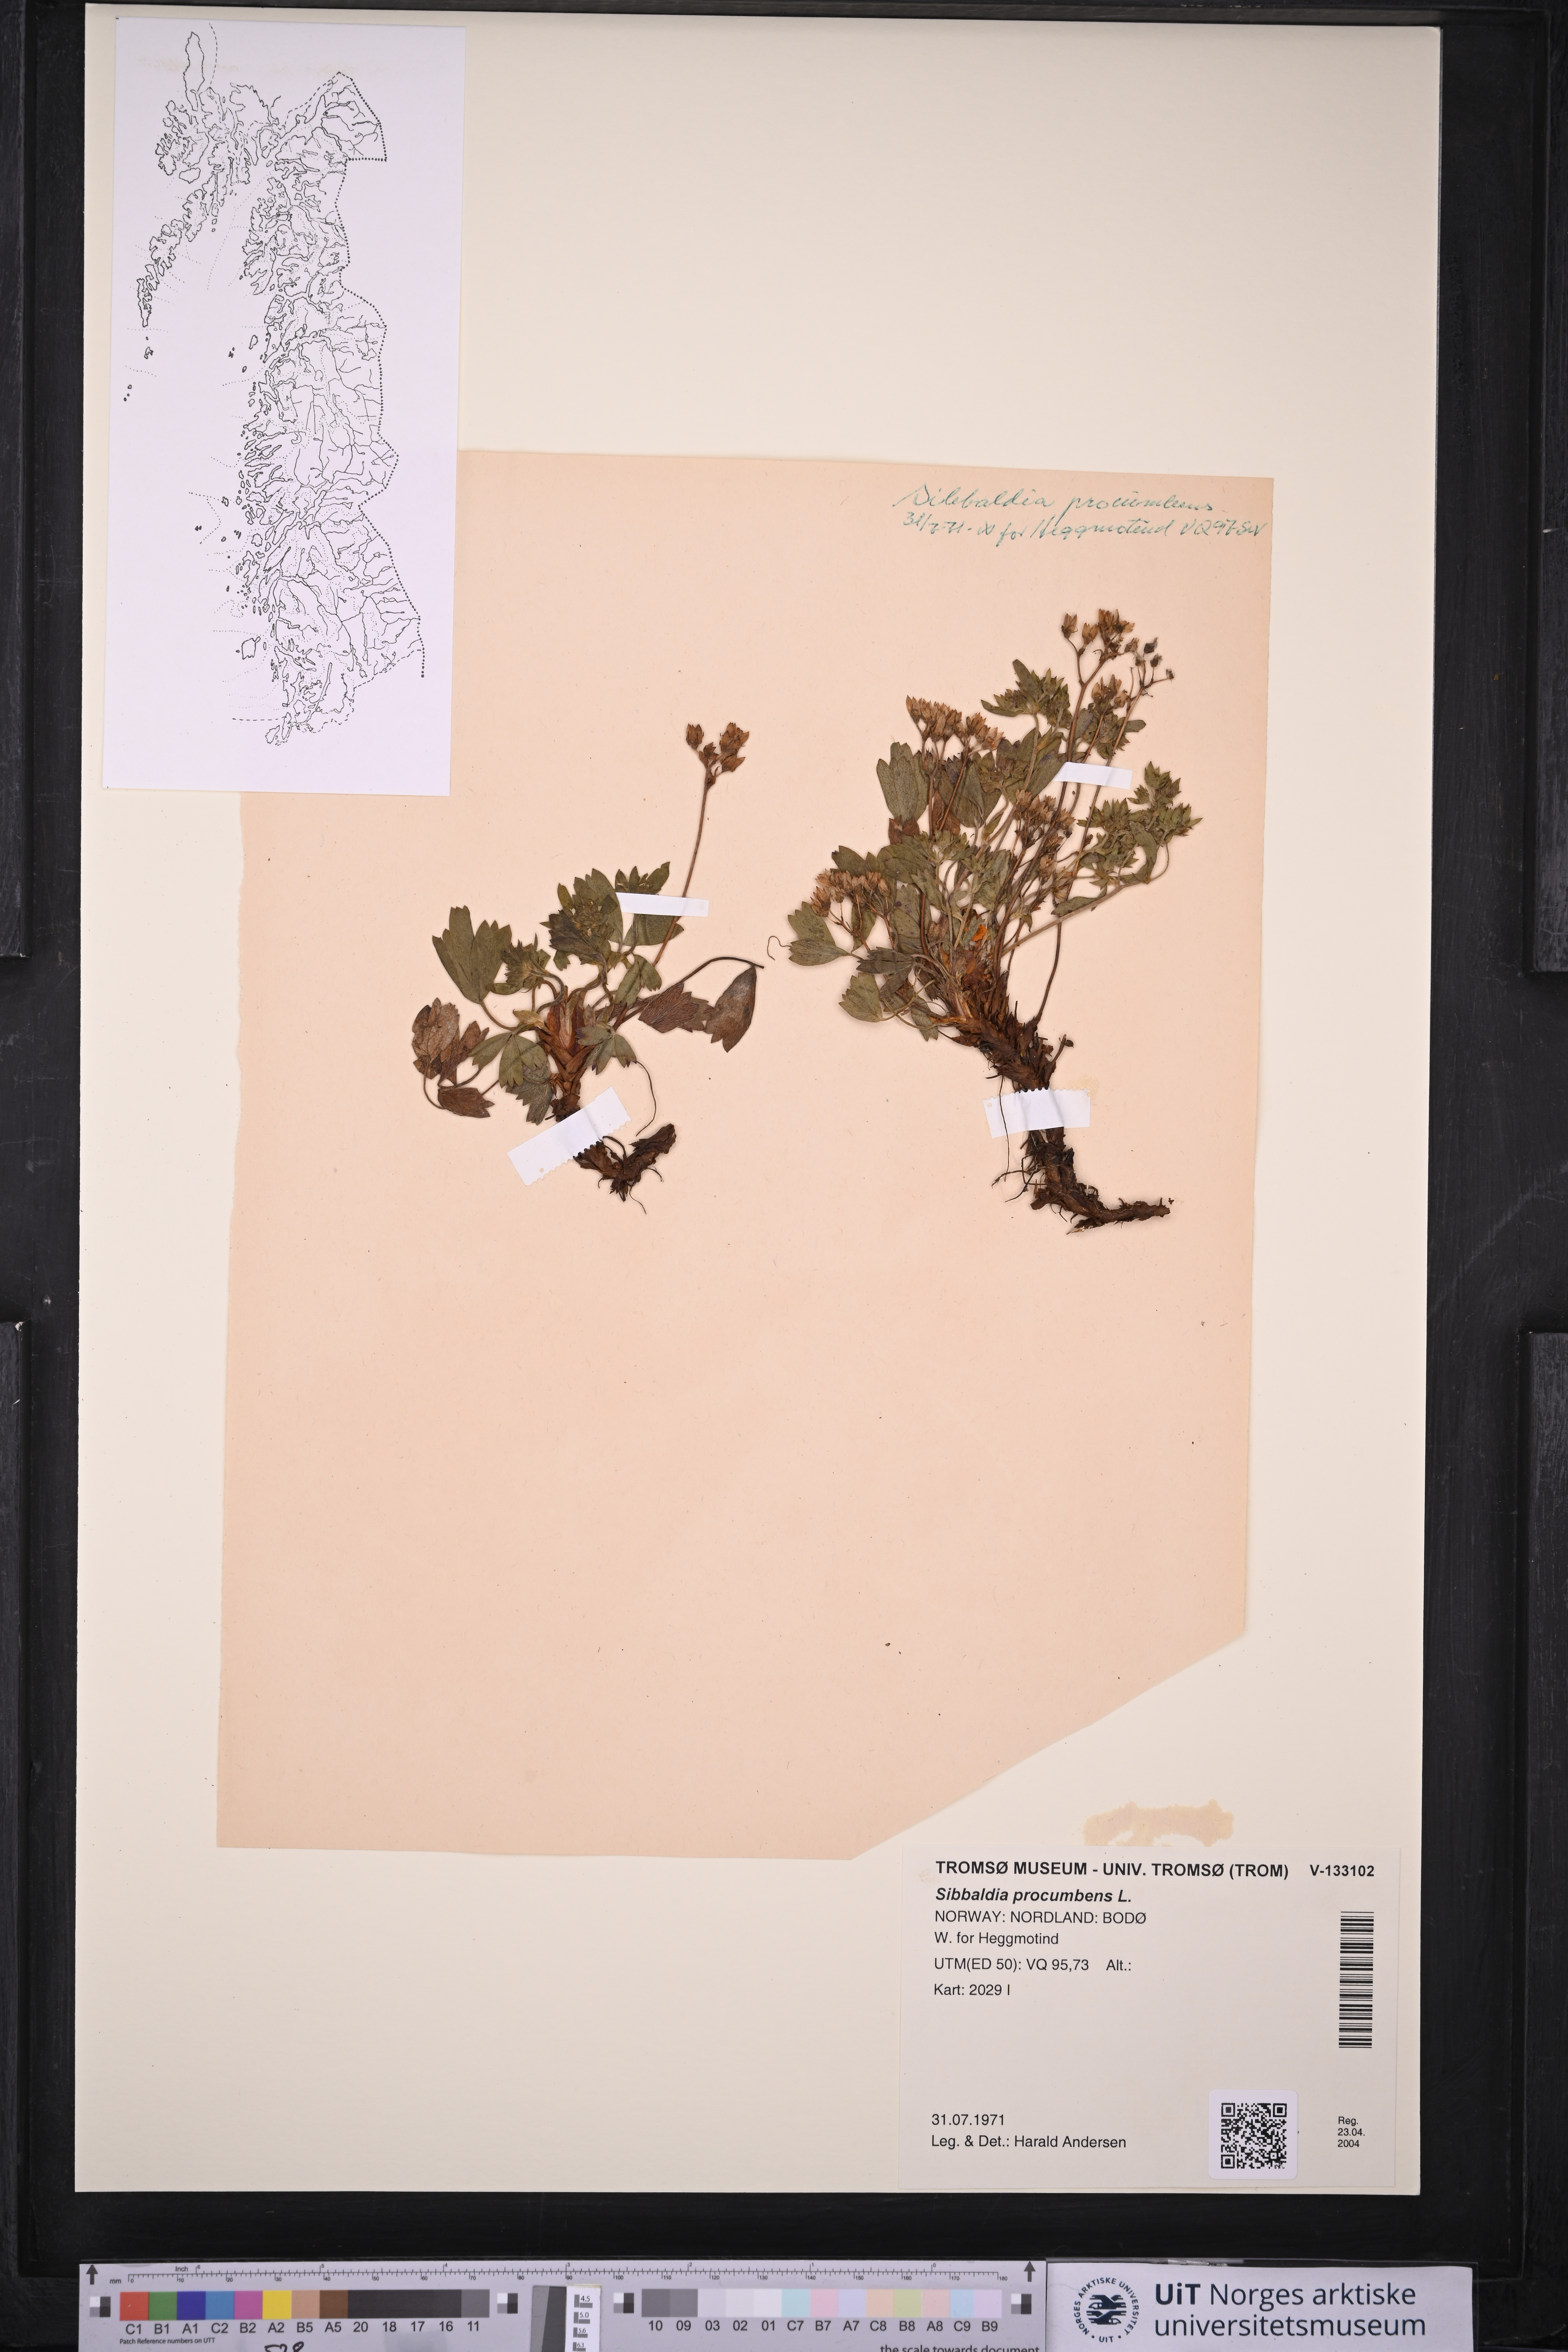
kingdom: Plantae
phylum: Tracheophyta
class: Magnoliopsida
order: Rosales
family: Rosaceae
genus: Sibbaldia
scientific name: Sibbaldia procumbens
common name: Creeping sibbaldia
